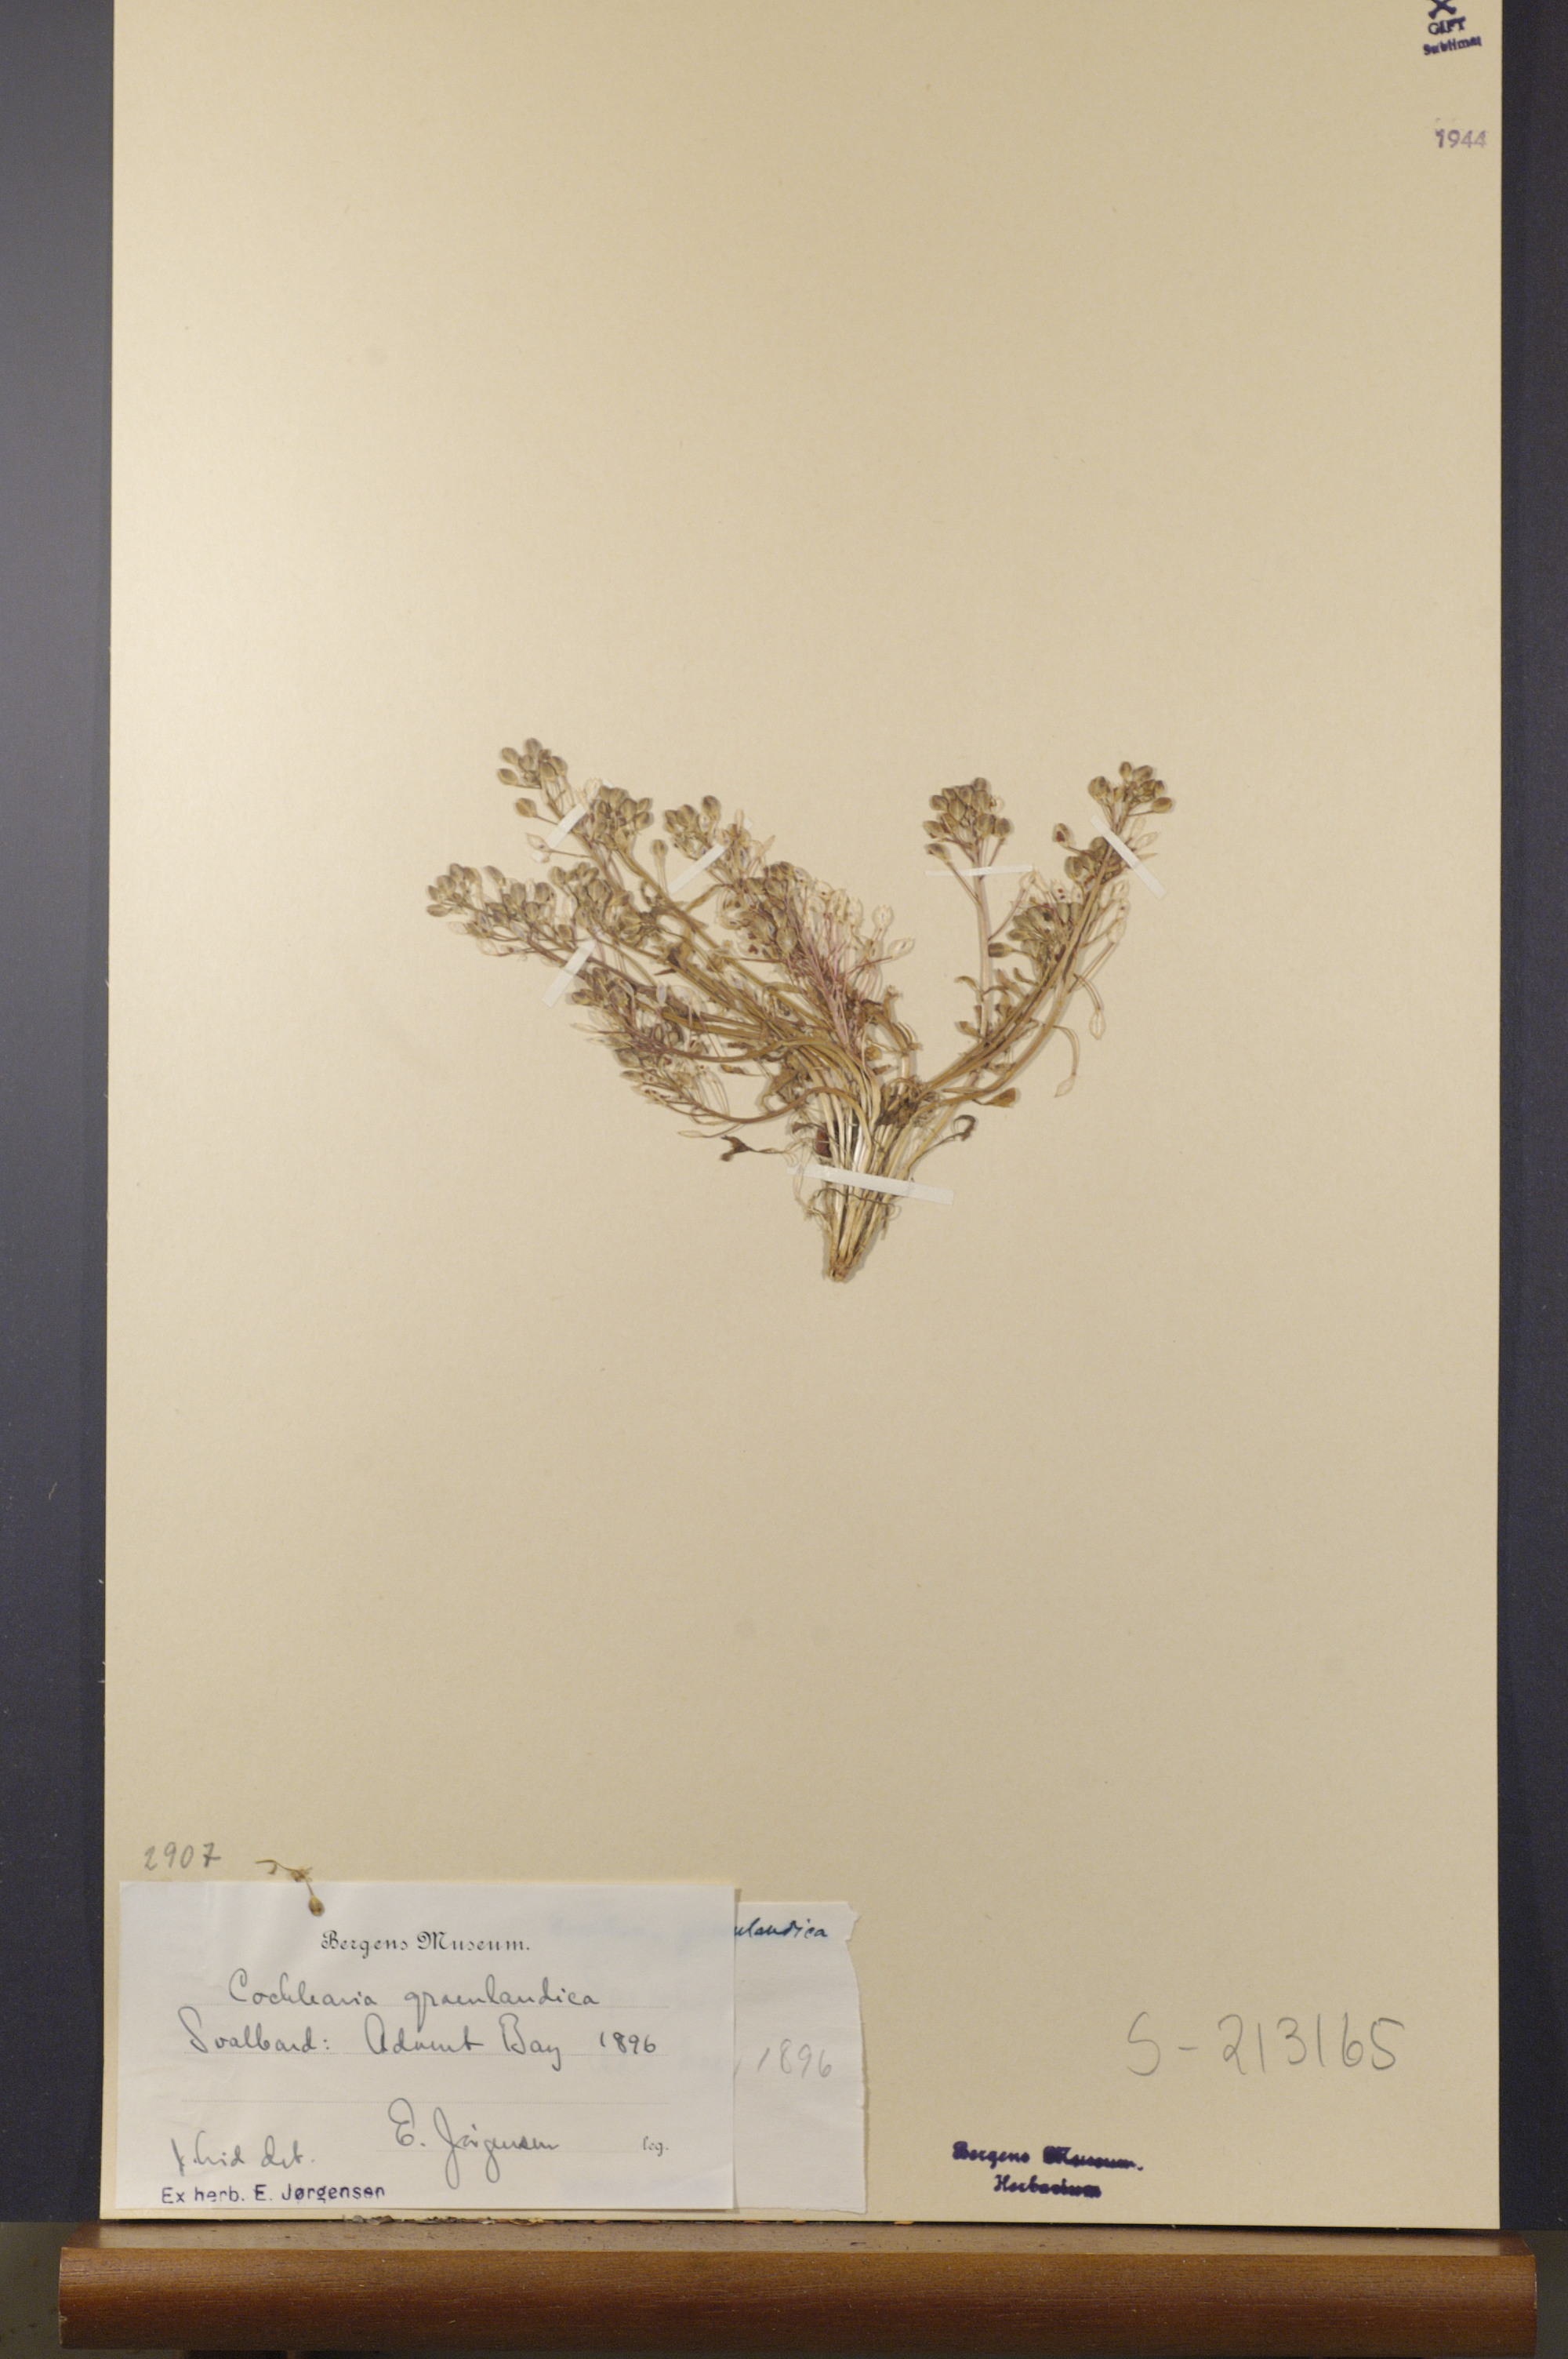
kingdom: Plantae
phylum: Tracheophyta
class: Magnoliopsida
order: Brassicales
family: Brassicaceae
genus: Cochlearia
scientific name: Cochlearia groenlandica
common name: Danish scurvygrass
